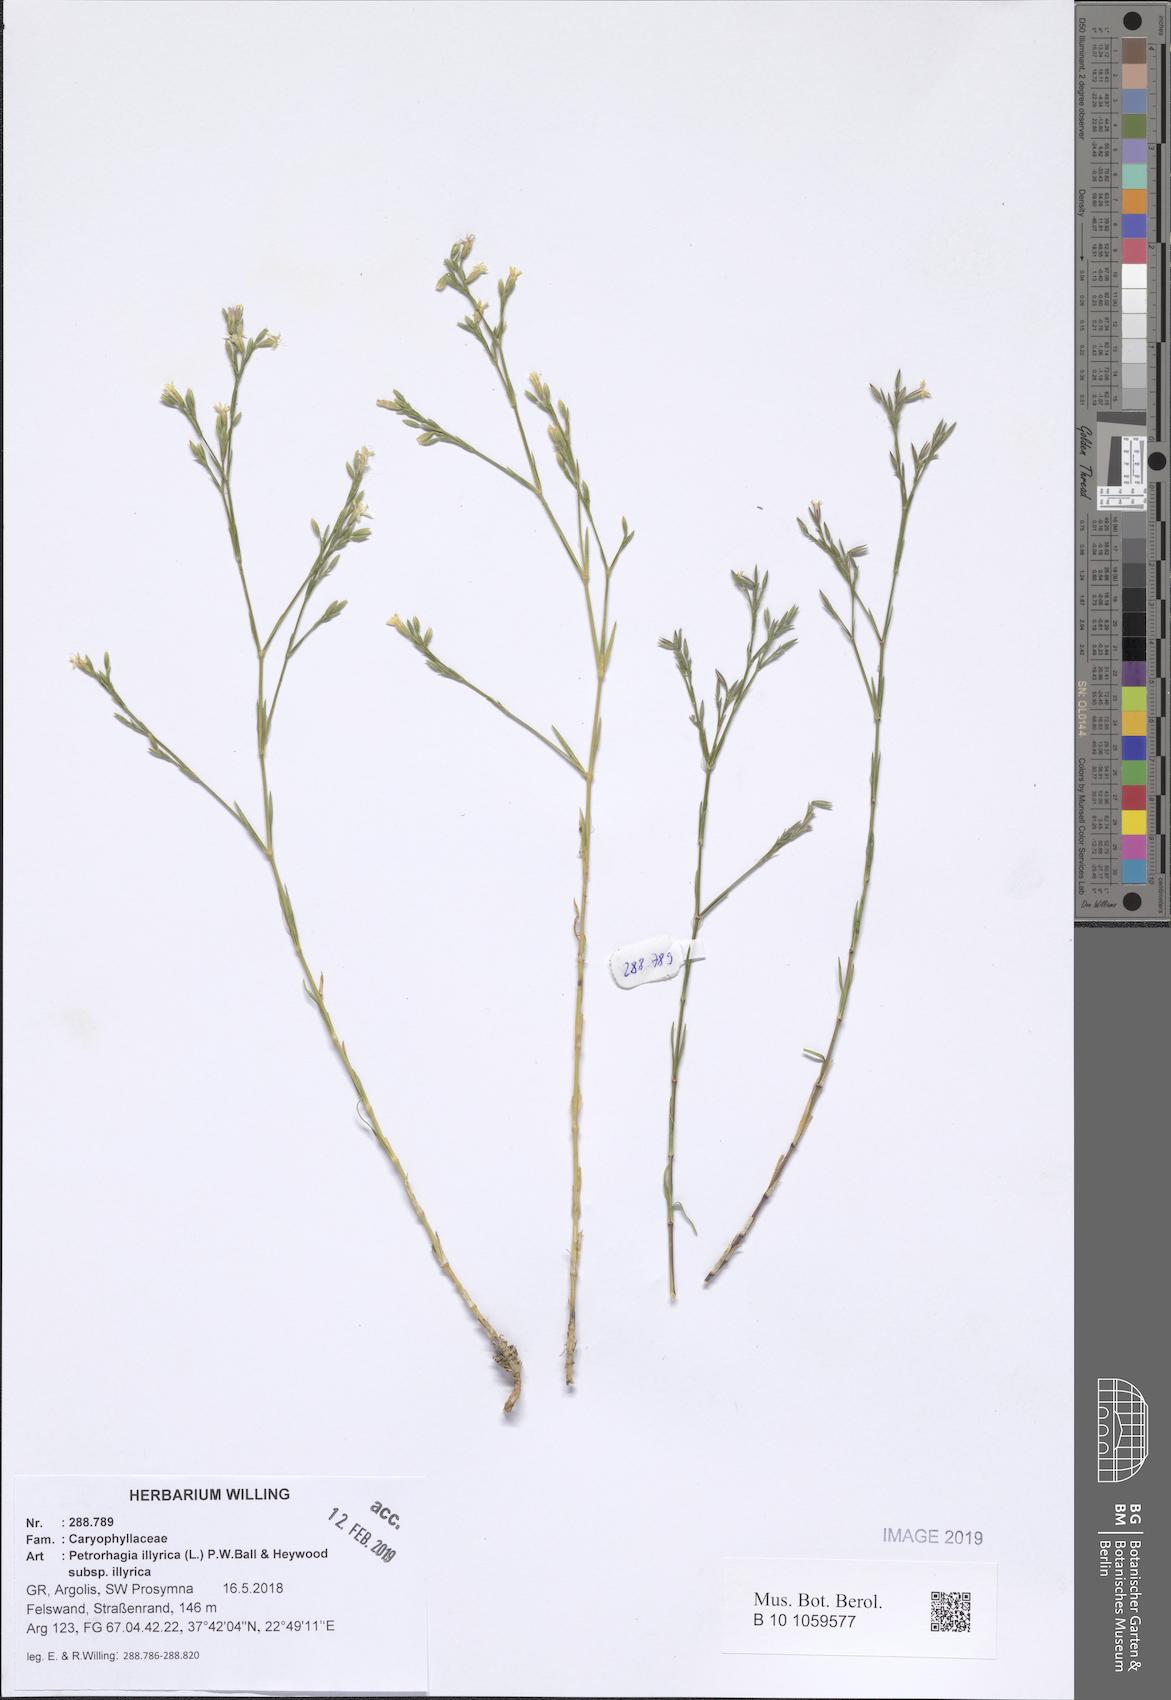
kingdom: Plantae
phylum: Tracheophyta
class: Magnoliopsida
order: Caryophyllales
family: Caryophyllaceae
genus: Dianthus
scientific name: Dianthus illyricus
